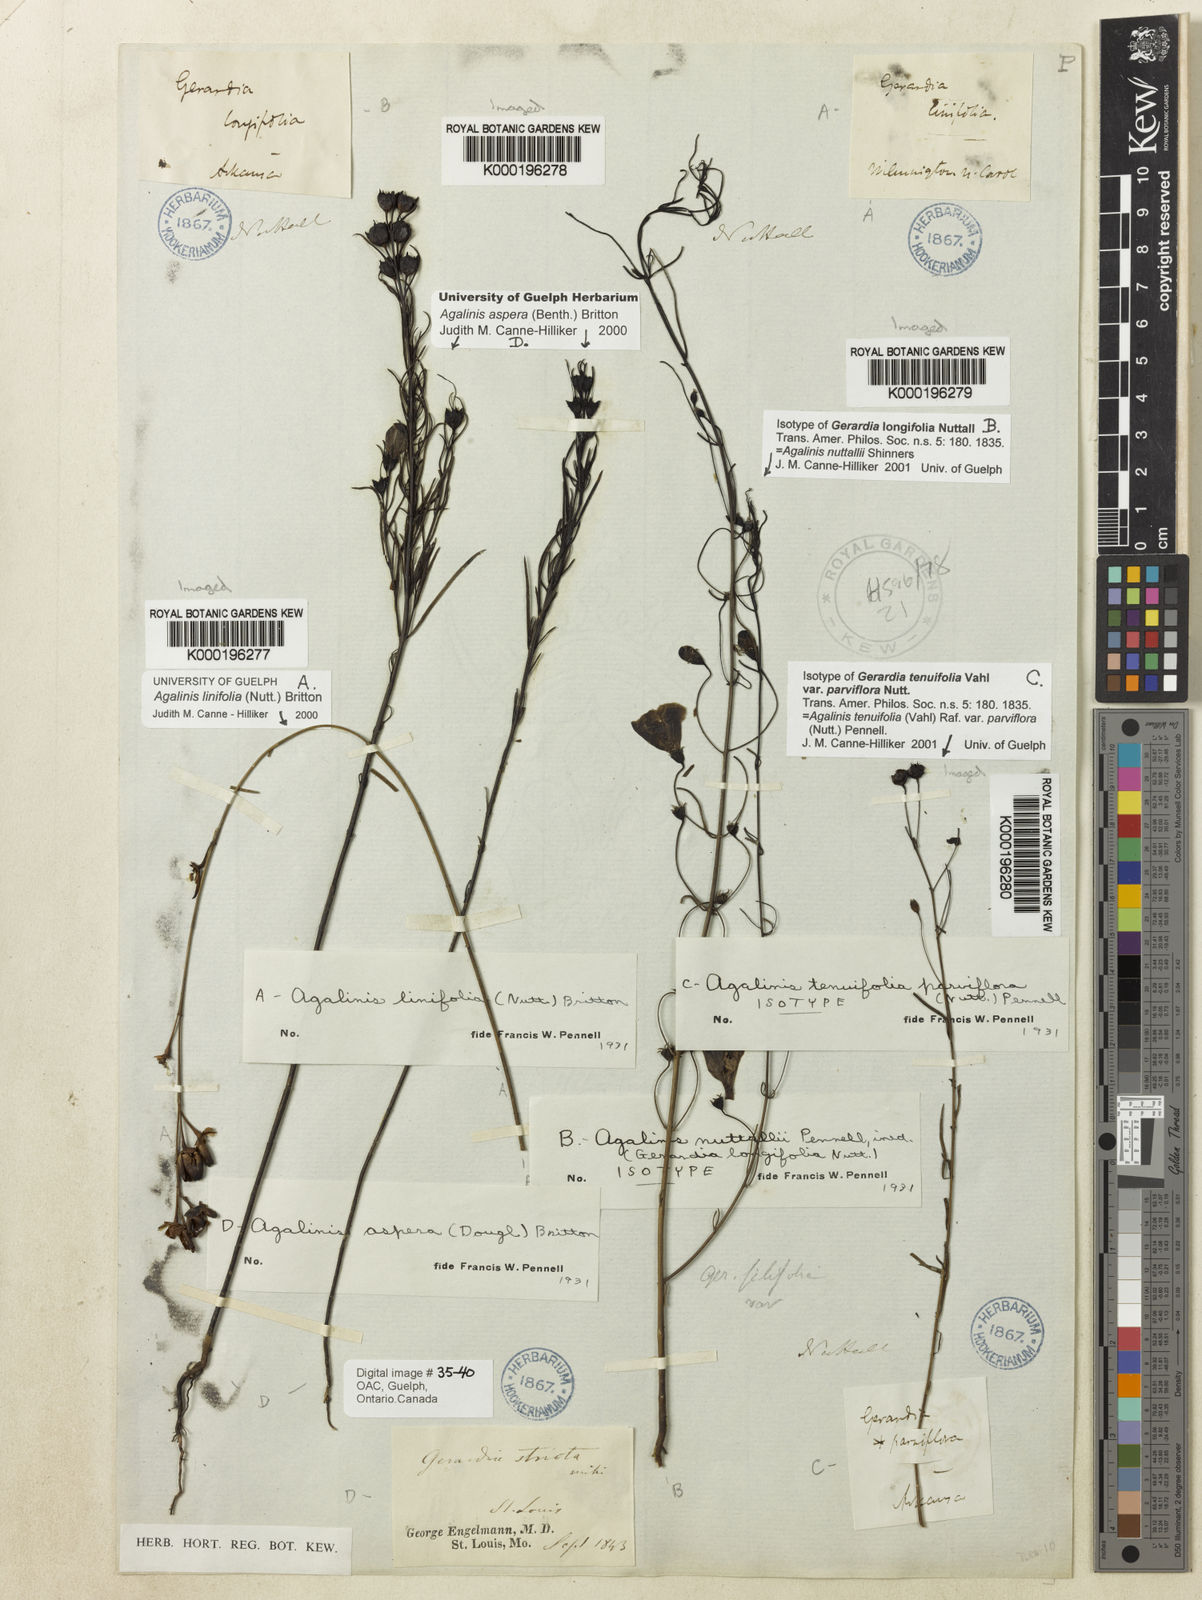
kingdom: Plantae
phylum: Tracheophyta
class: Magnoliopsida
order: Lamiales
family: Orobanchaceae
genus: Agalinis
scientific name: Agalinis homalantha
